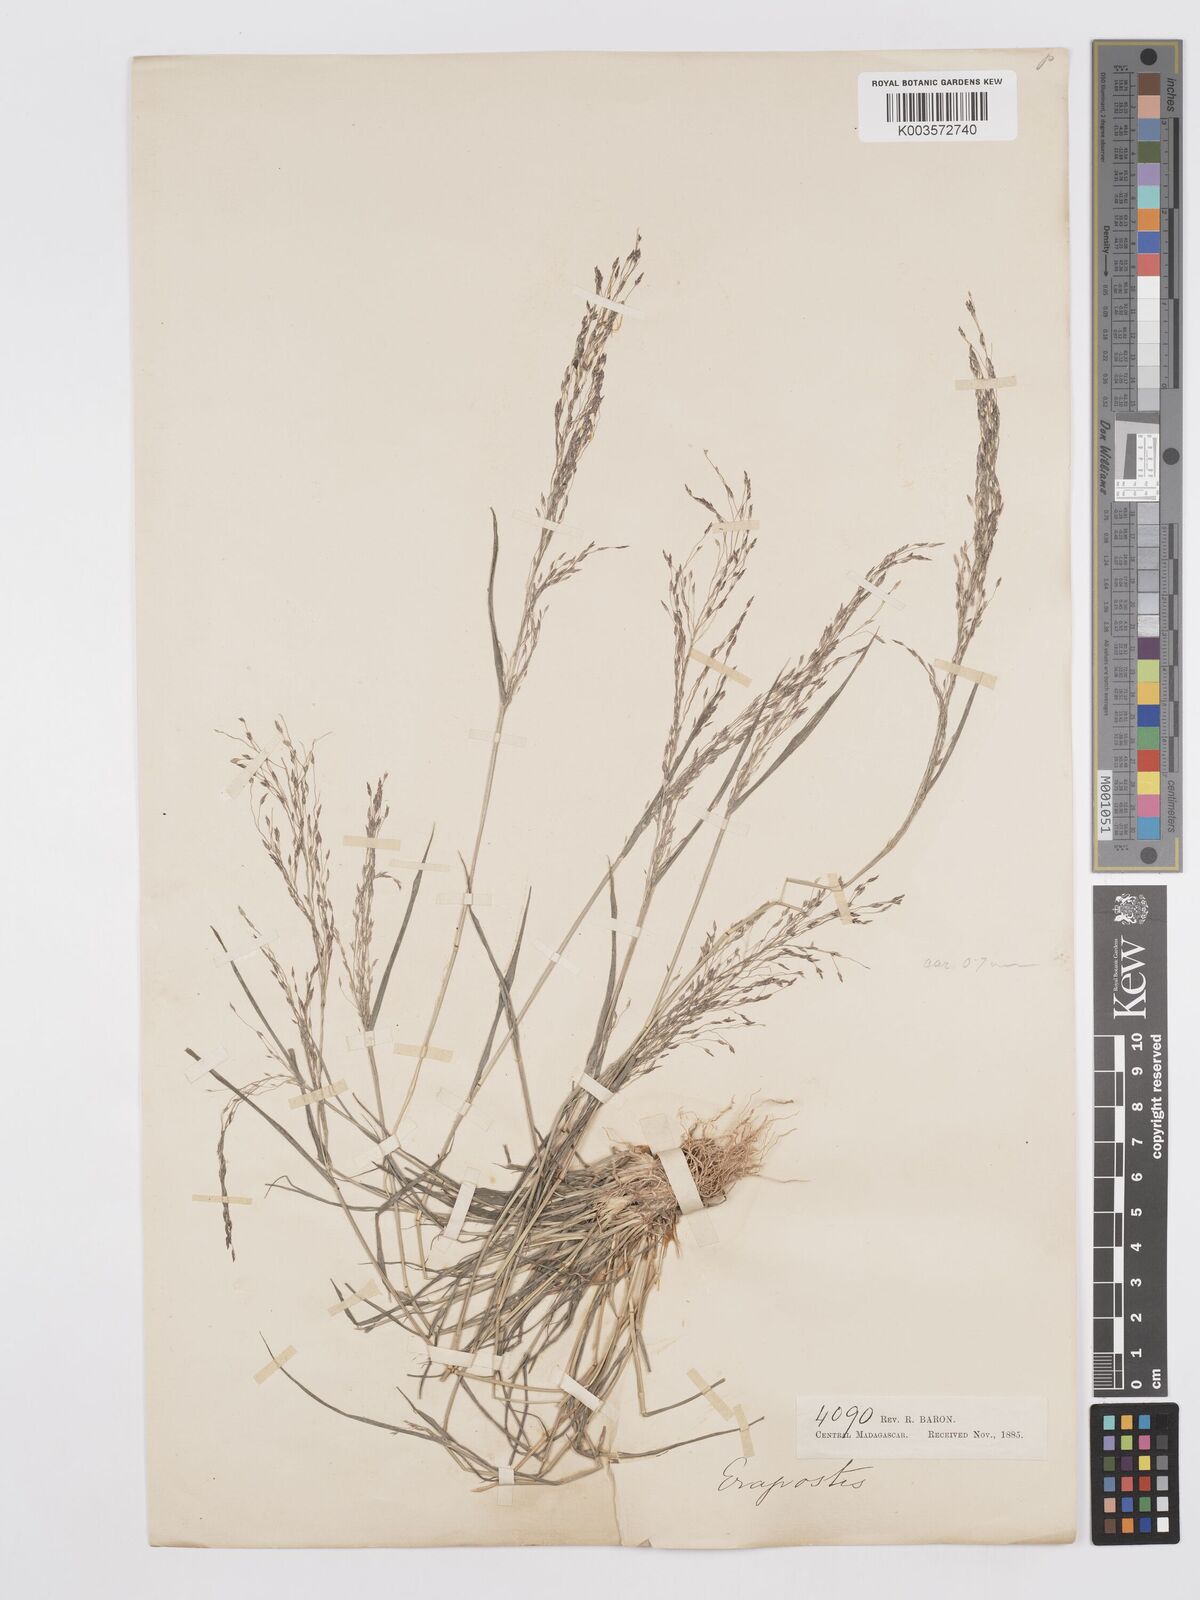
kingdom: Plantae
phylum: Tracheophyta
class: Liliopsida
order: Poales
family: Poaceae
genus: Eragrostis
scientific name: Eragrostis
